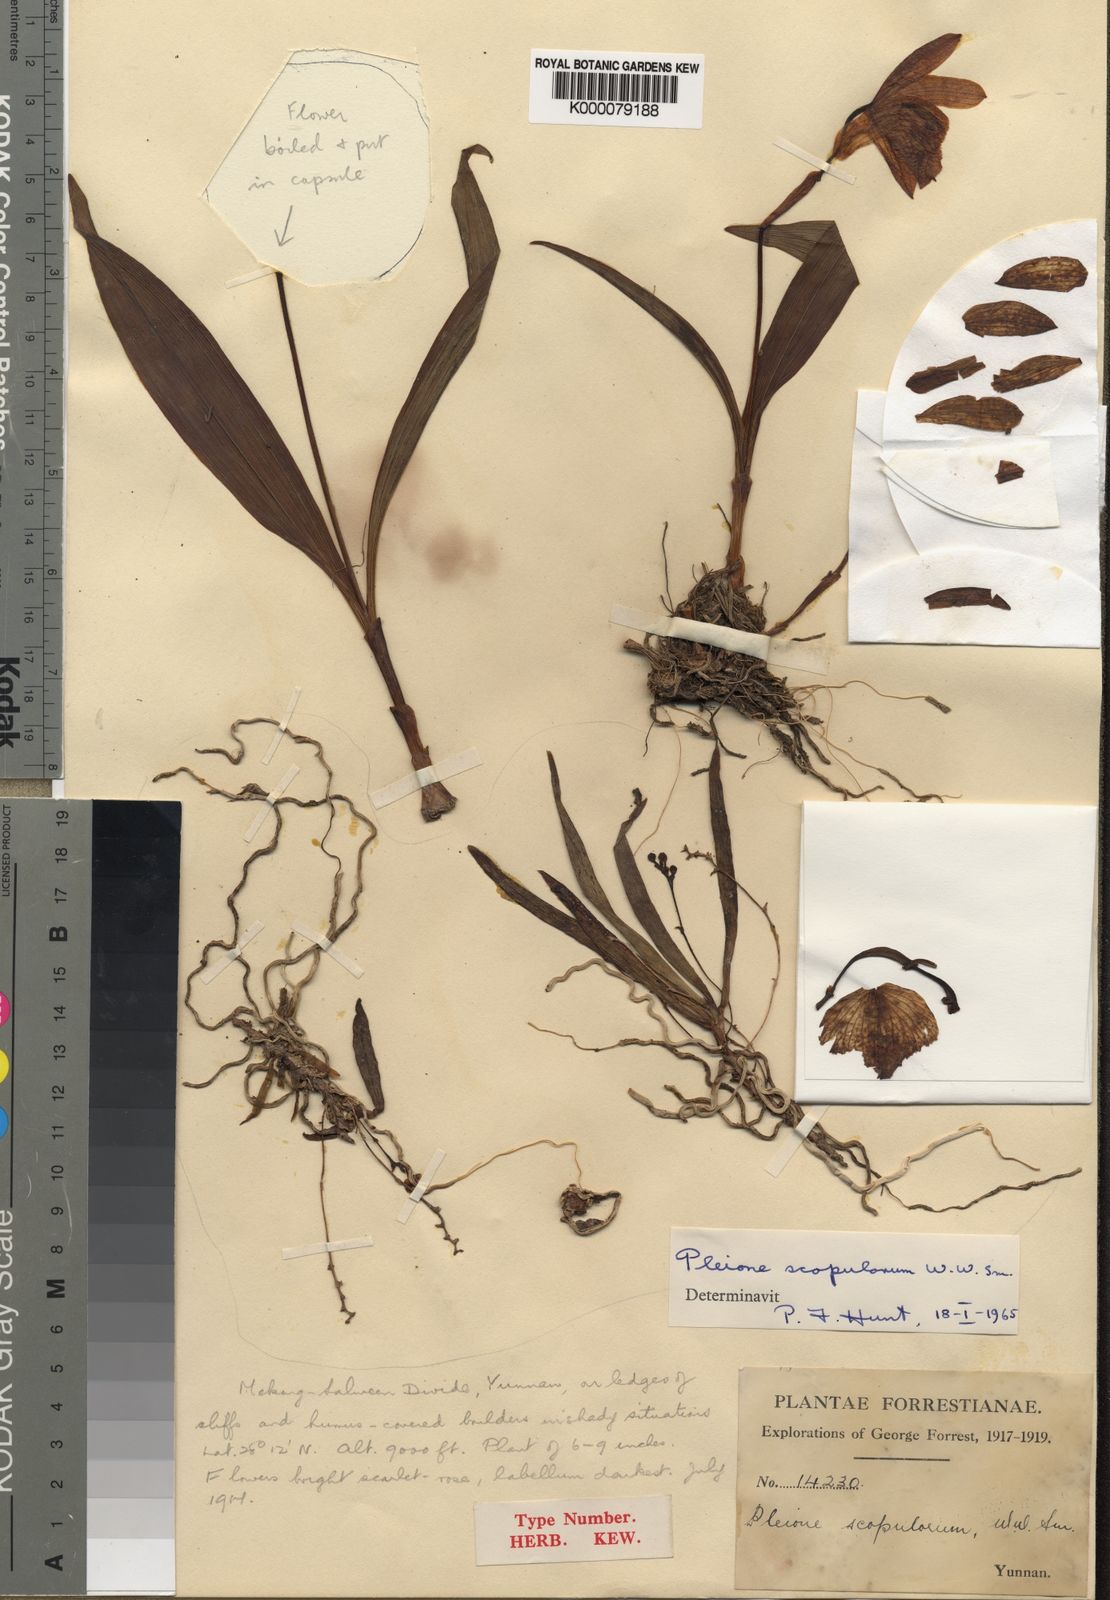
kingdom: Plantae
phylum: Tracheophyta
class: Liliopsida
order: Asparagales
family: Orchidaceae
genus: Pleione
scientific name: Pleione scopulorum
